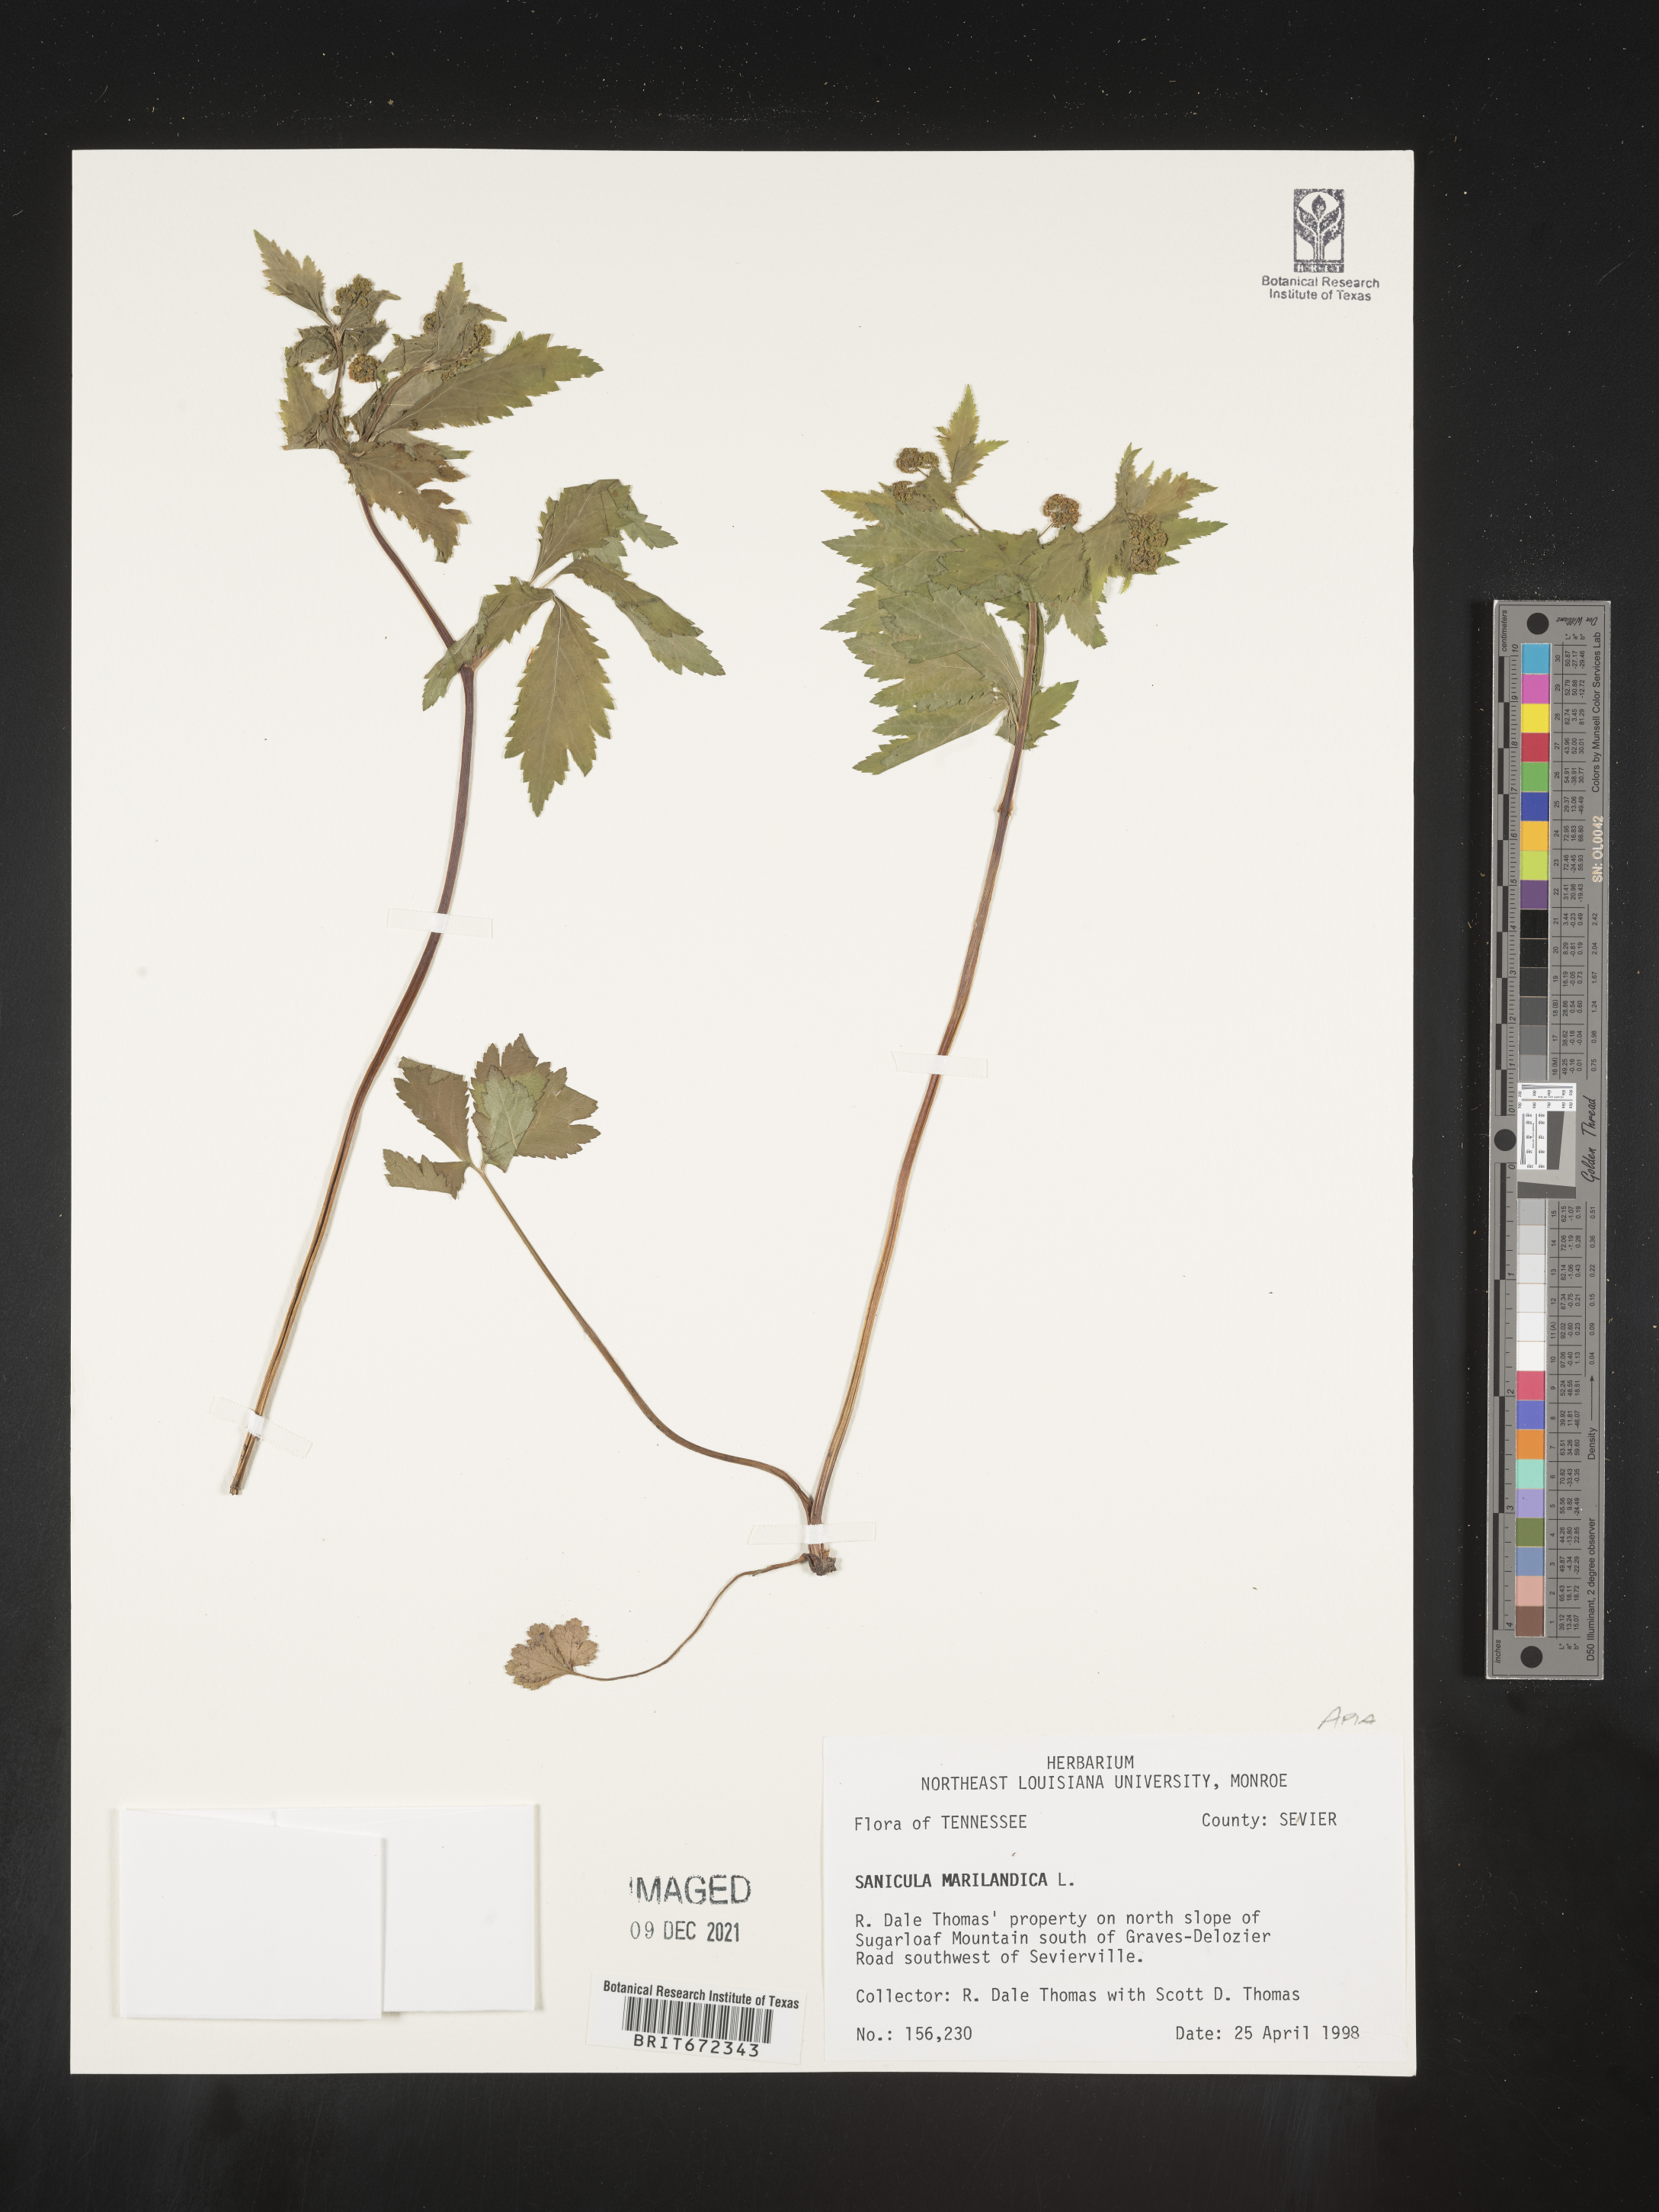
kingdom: Plantae
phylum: Tracheophyta
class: Magnoliopsida
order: Apiales
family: Apiaceae
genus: Sanicula
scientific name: Sanicula marilandica
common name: Black snakeroot
